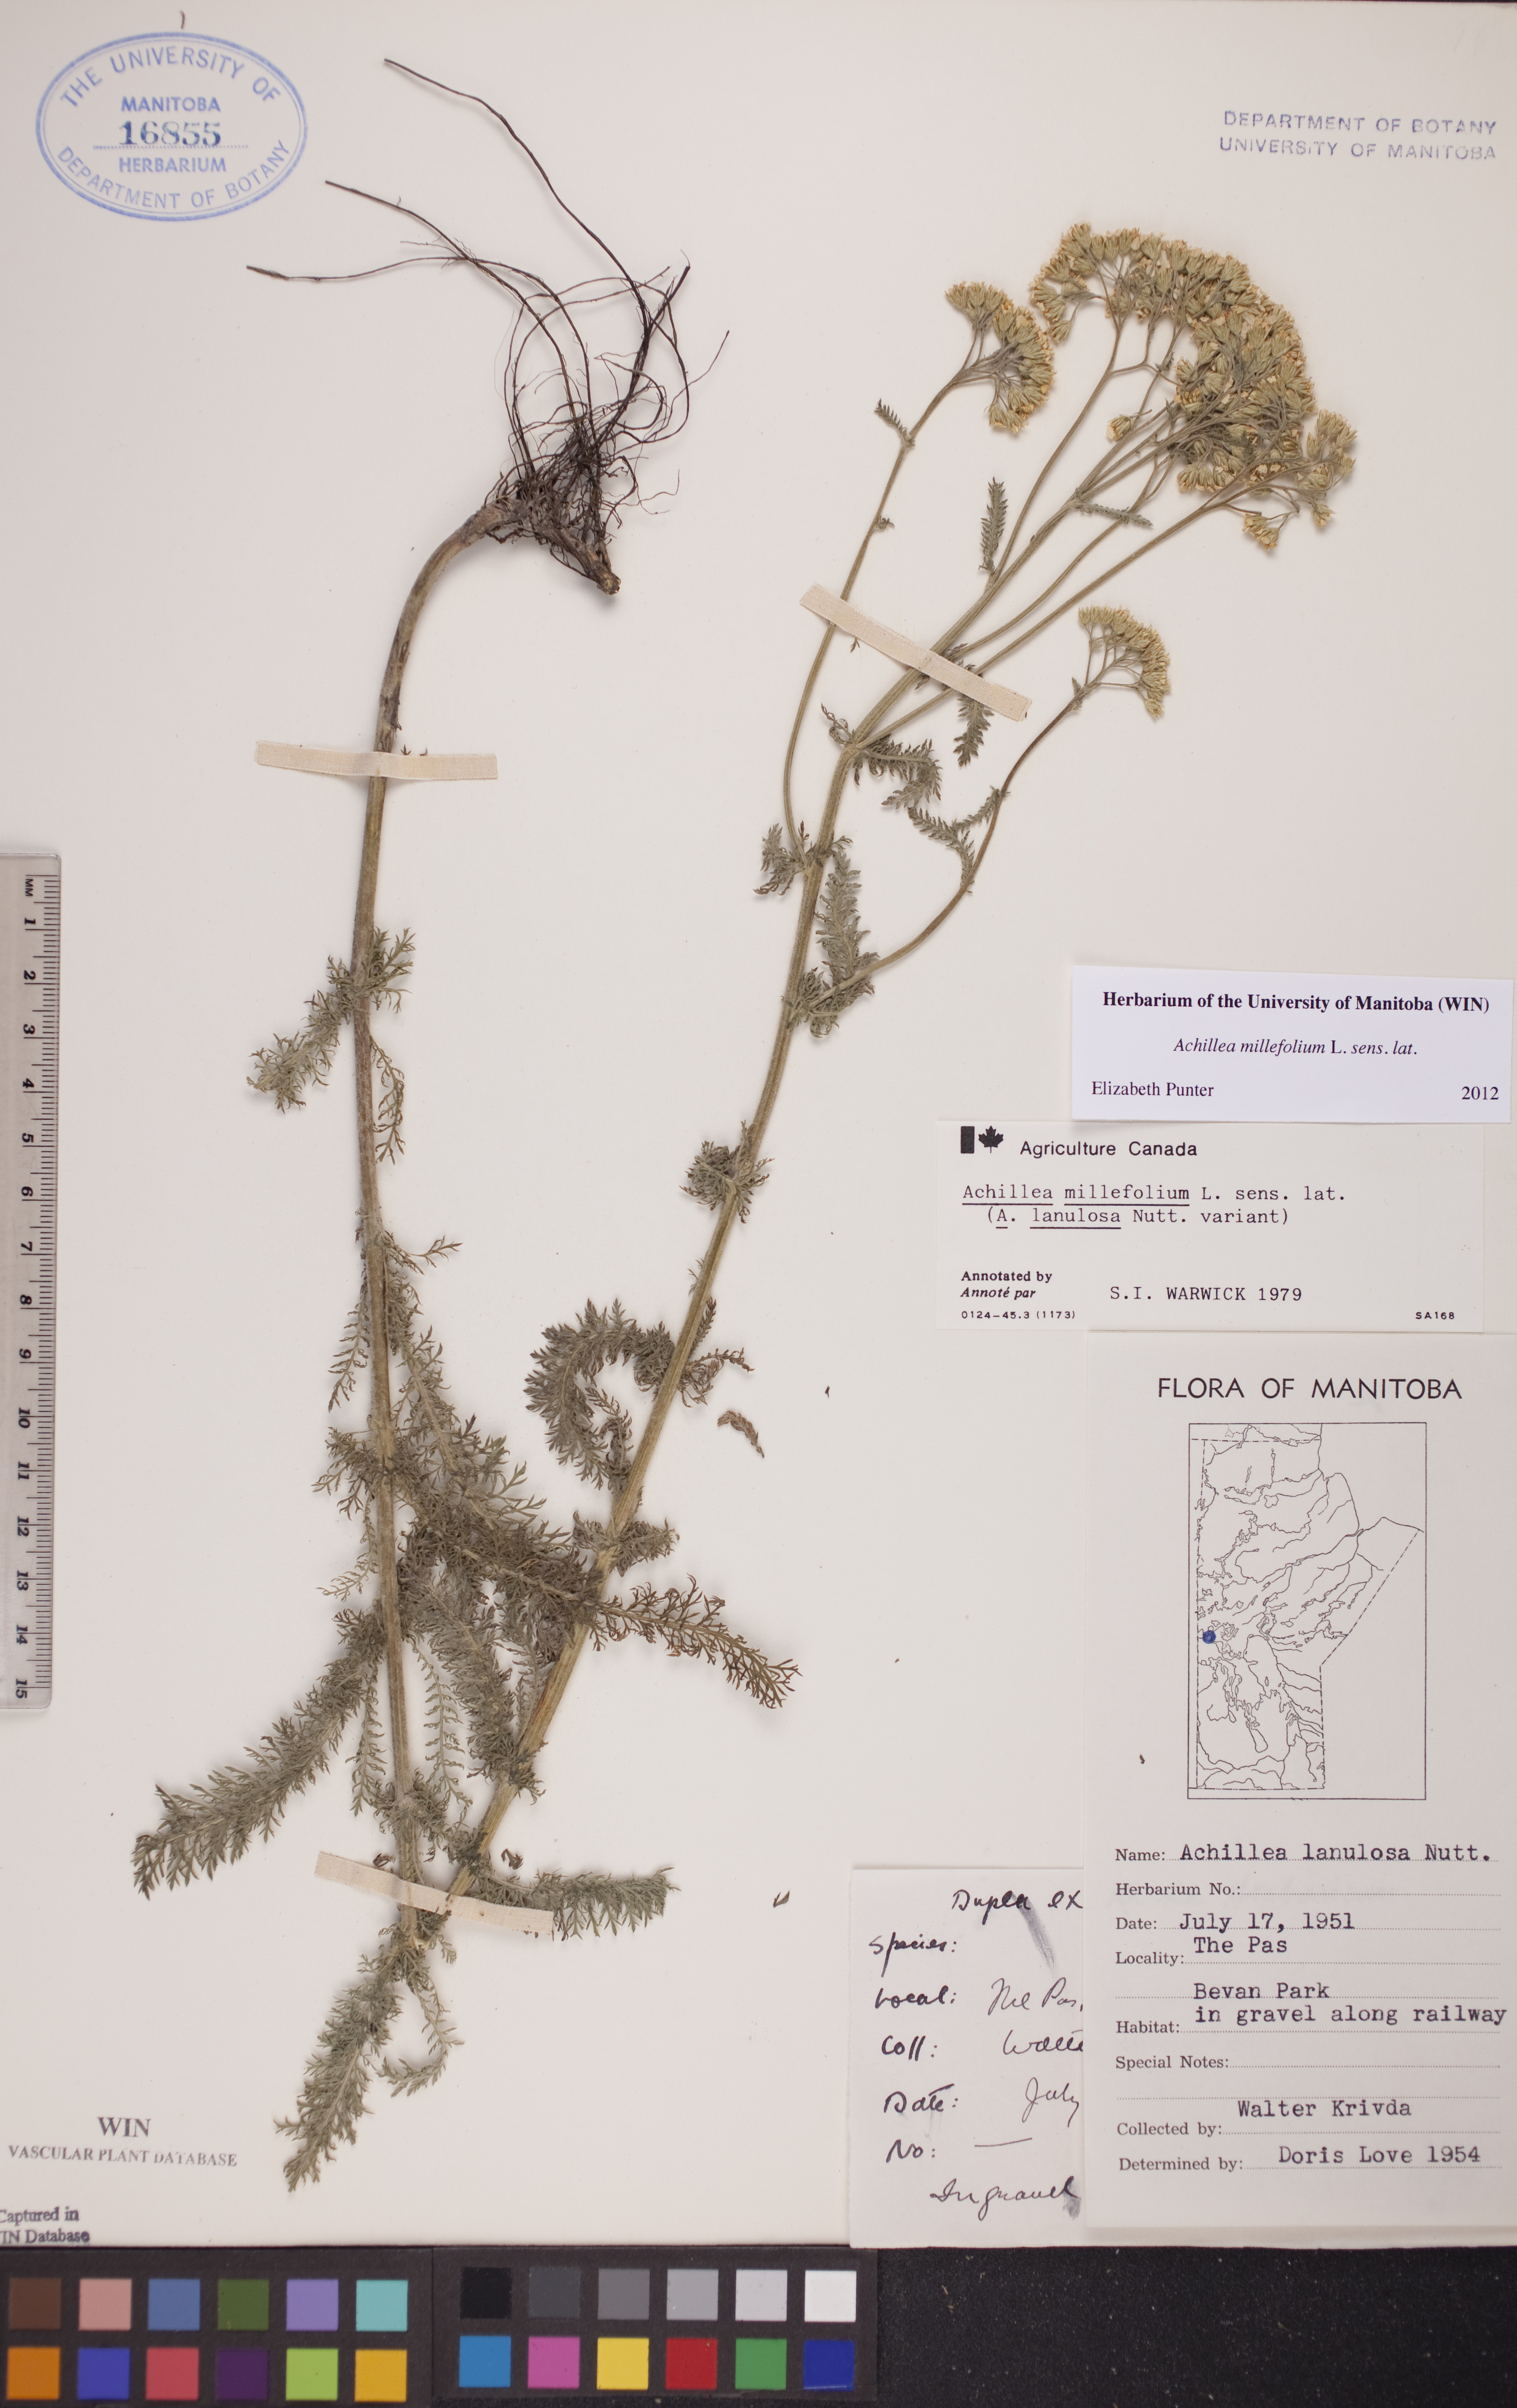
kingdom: Plantae
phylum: Tracheophyta
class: Magnoliopsida
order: Asterales
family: Asteraceae
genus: Achillea
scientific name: Achillea millefolium
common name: Yarrow
